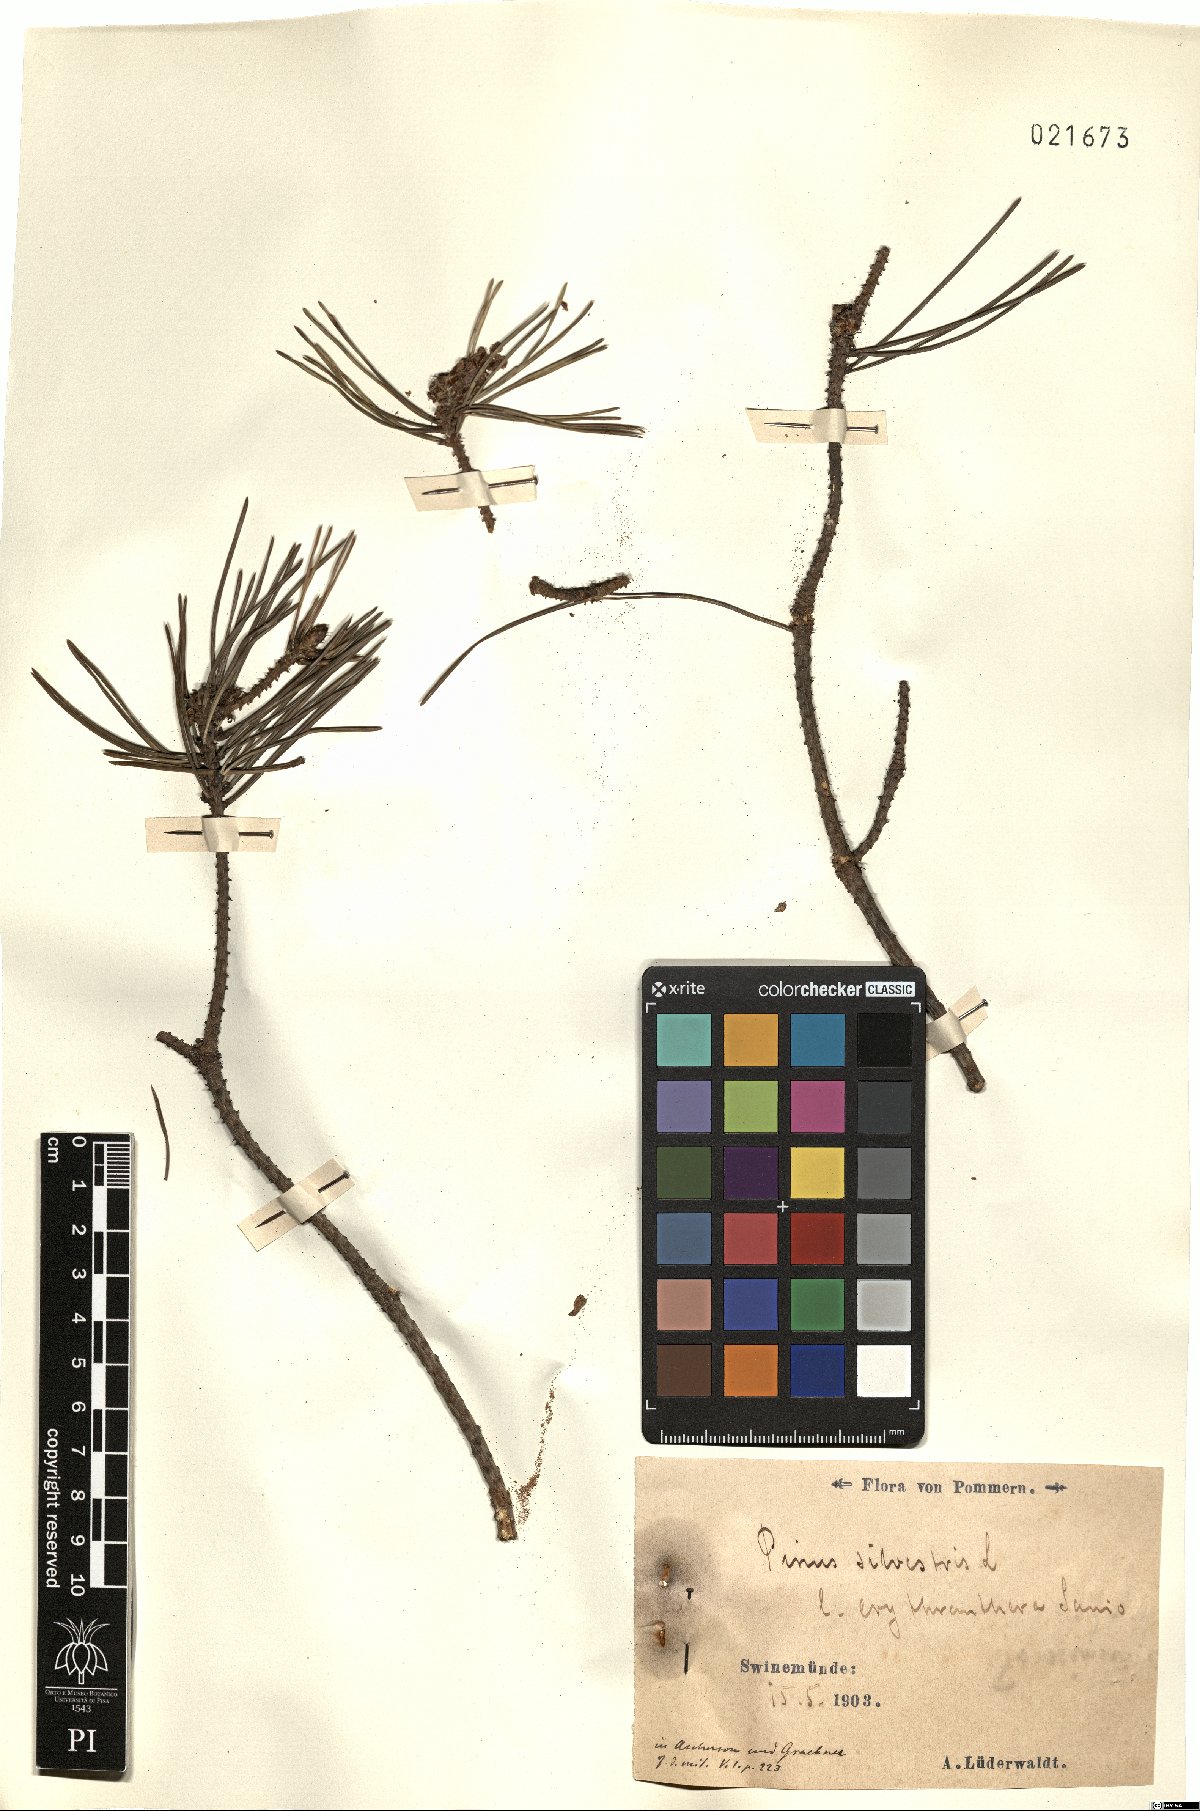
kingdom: Plantae
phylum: Tracheophyta
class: Pinopsida
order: Pinales
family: Pinaceae
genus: Pinus
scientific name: Pinus sylvestris
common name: Scots pine
